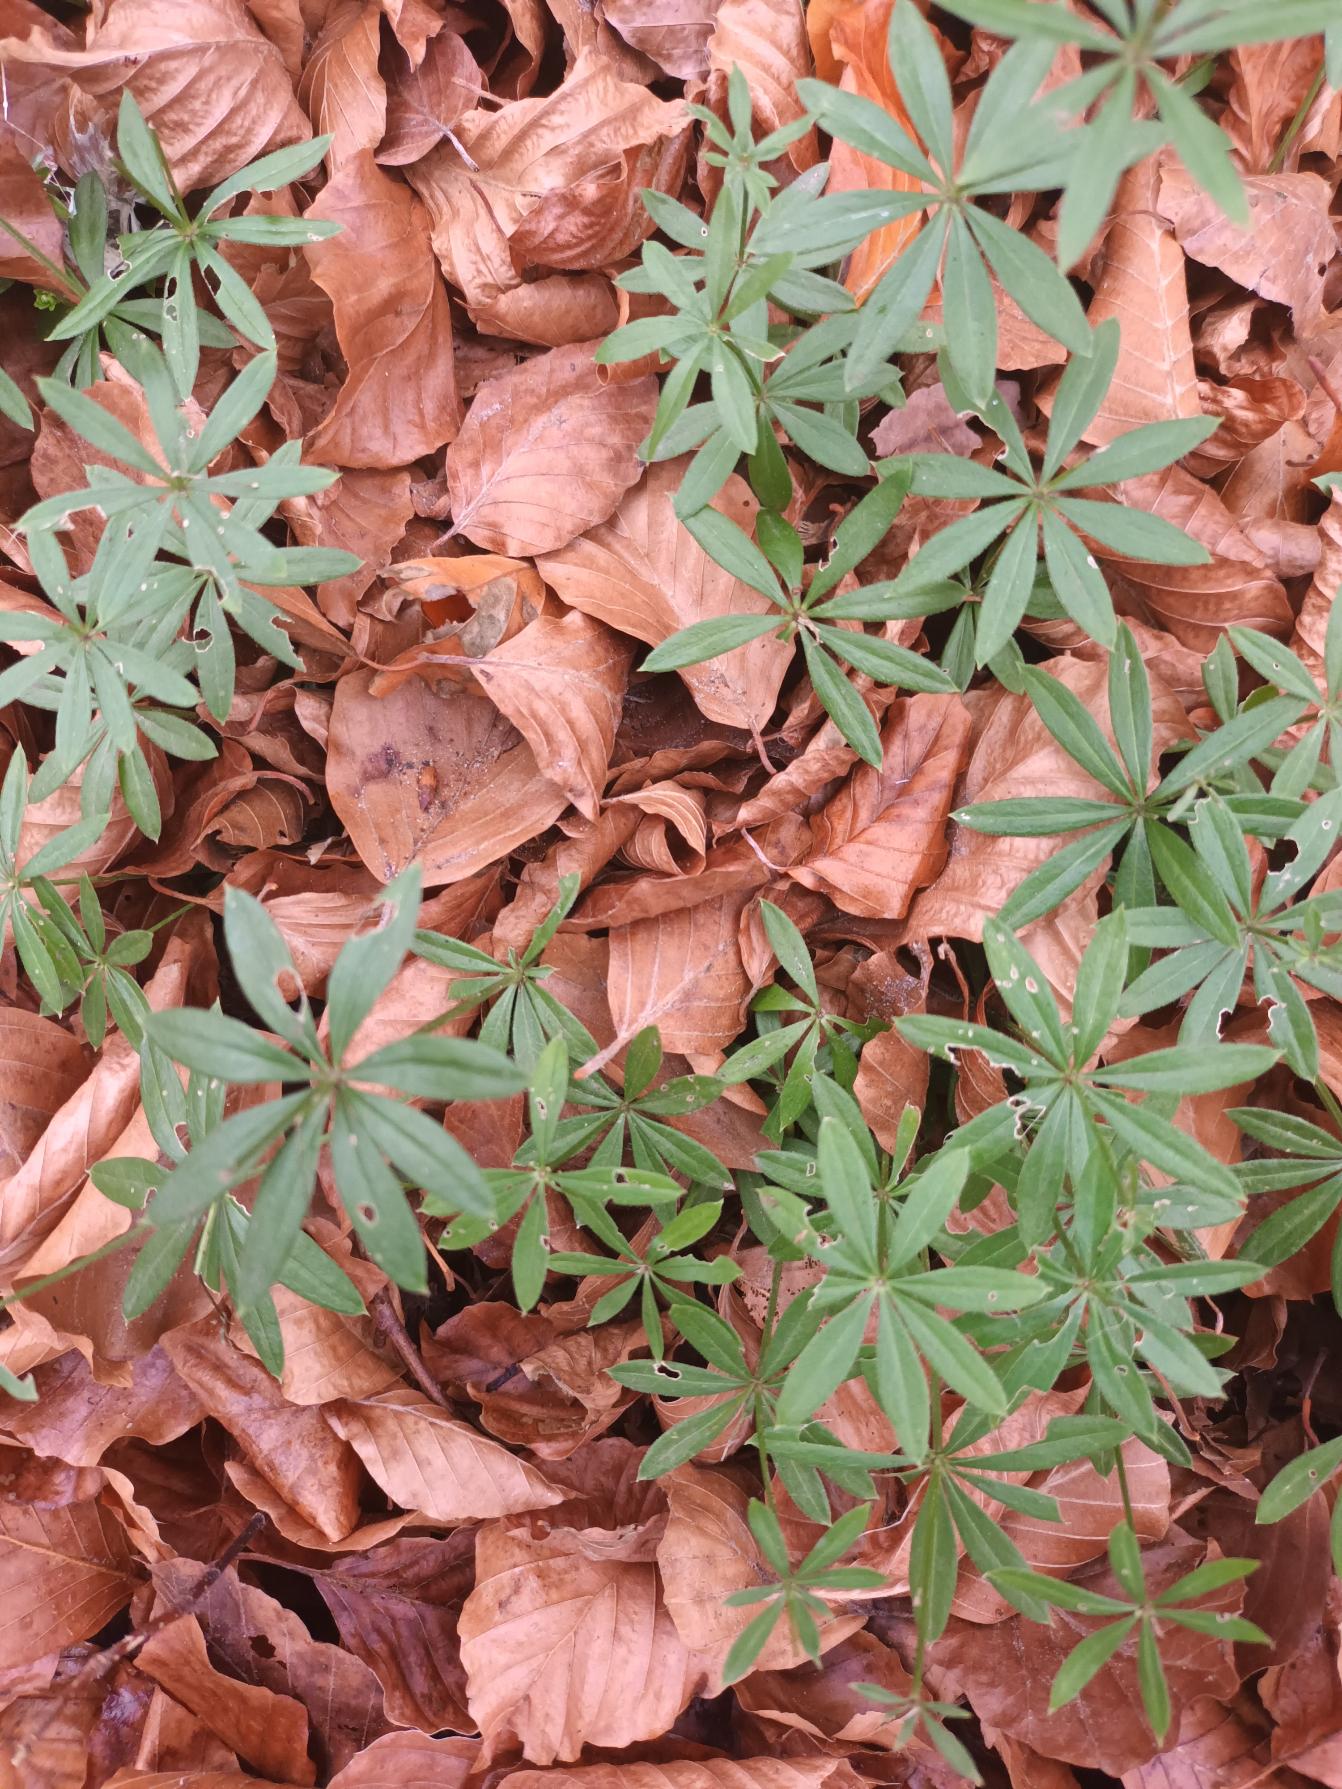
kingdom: Plantae
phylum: Tracheophyta
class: Magnoliopsida
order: Gentianales
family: Rubiaceae
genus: Galium
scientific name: Galium odoratum
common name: Skovmærke
